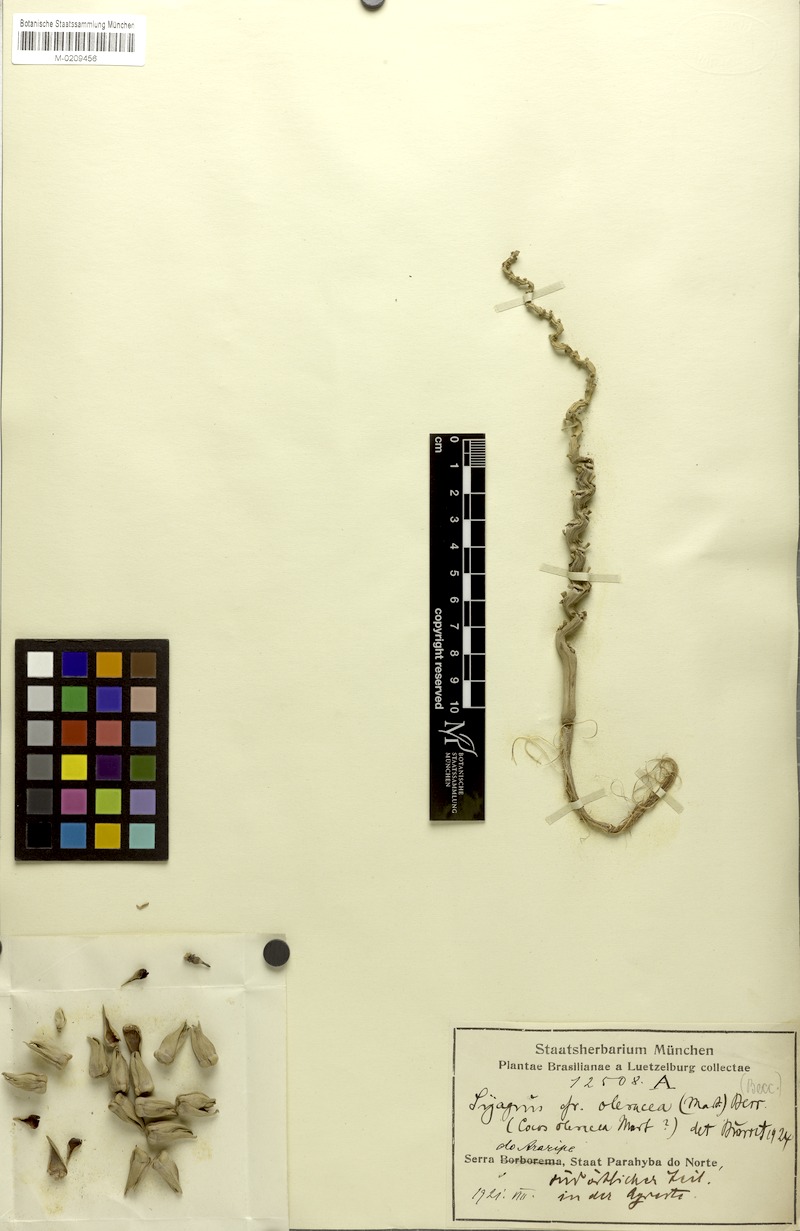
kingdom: Plantae
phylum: Tracheophyta
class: Liliopsida
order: Arecales
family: Arecaceae
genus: Syagrus
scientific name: Syagrus oleracea
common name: Catole palm
